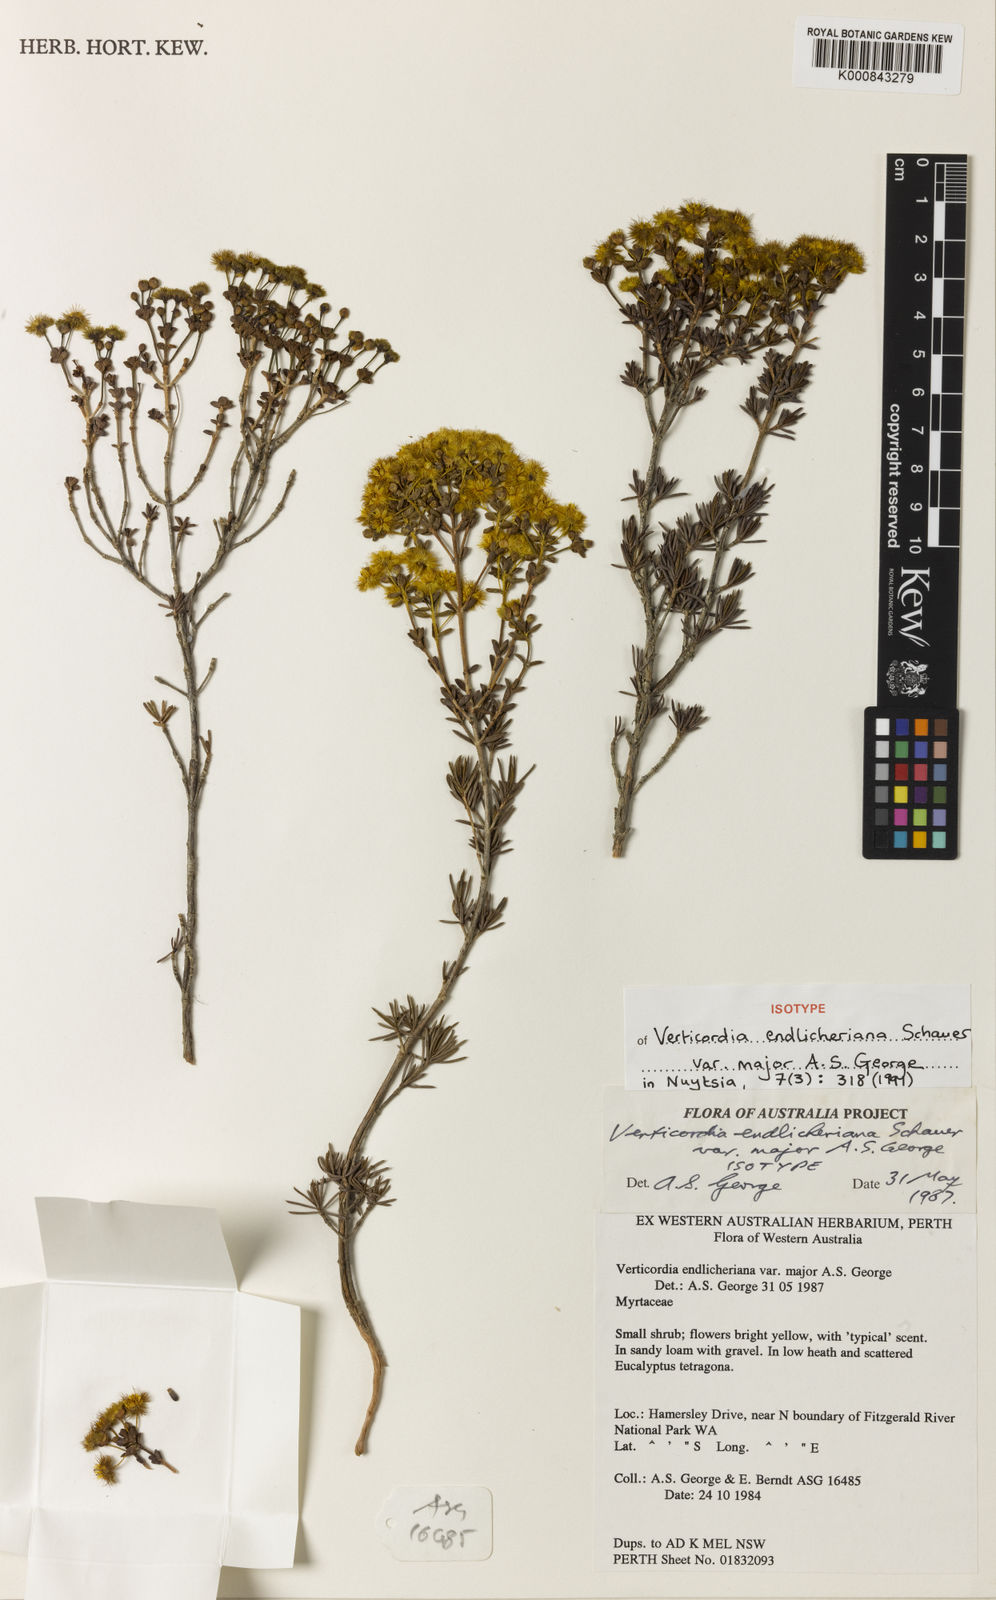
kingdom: Plantae
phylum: Tracheophyta
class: Magnoliopsida
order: Myrtales
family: Myrtaceae
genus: Verticordia
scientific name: Verticordia endlicheriana
